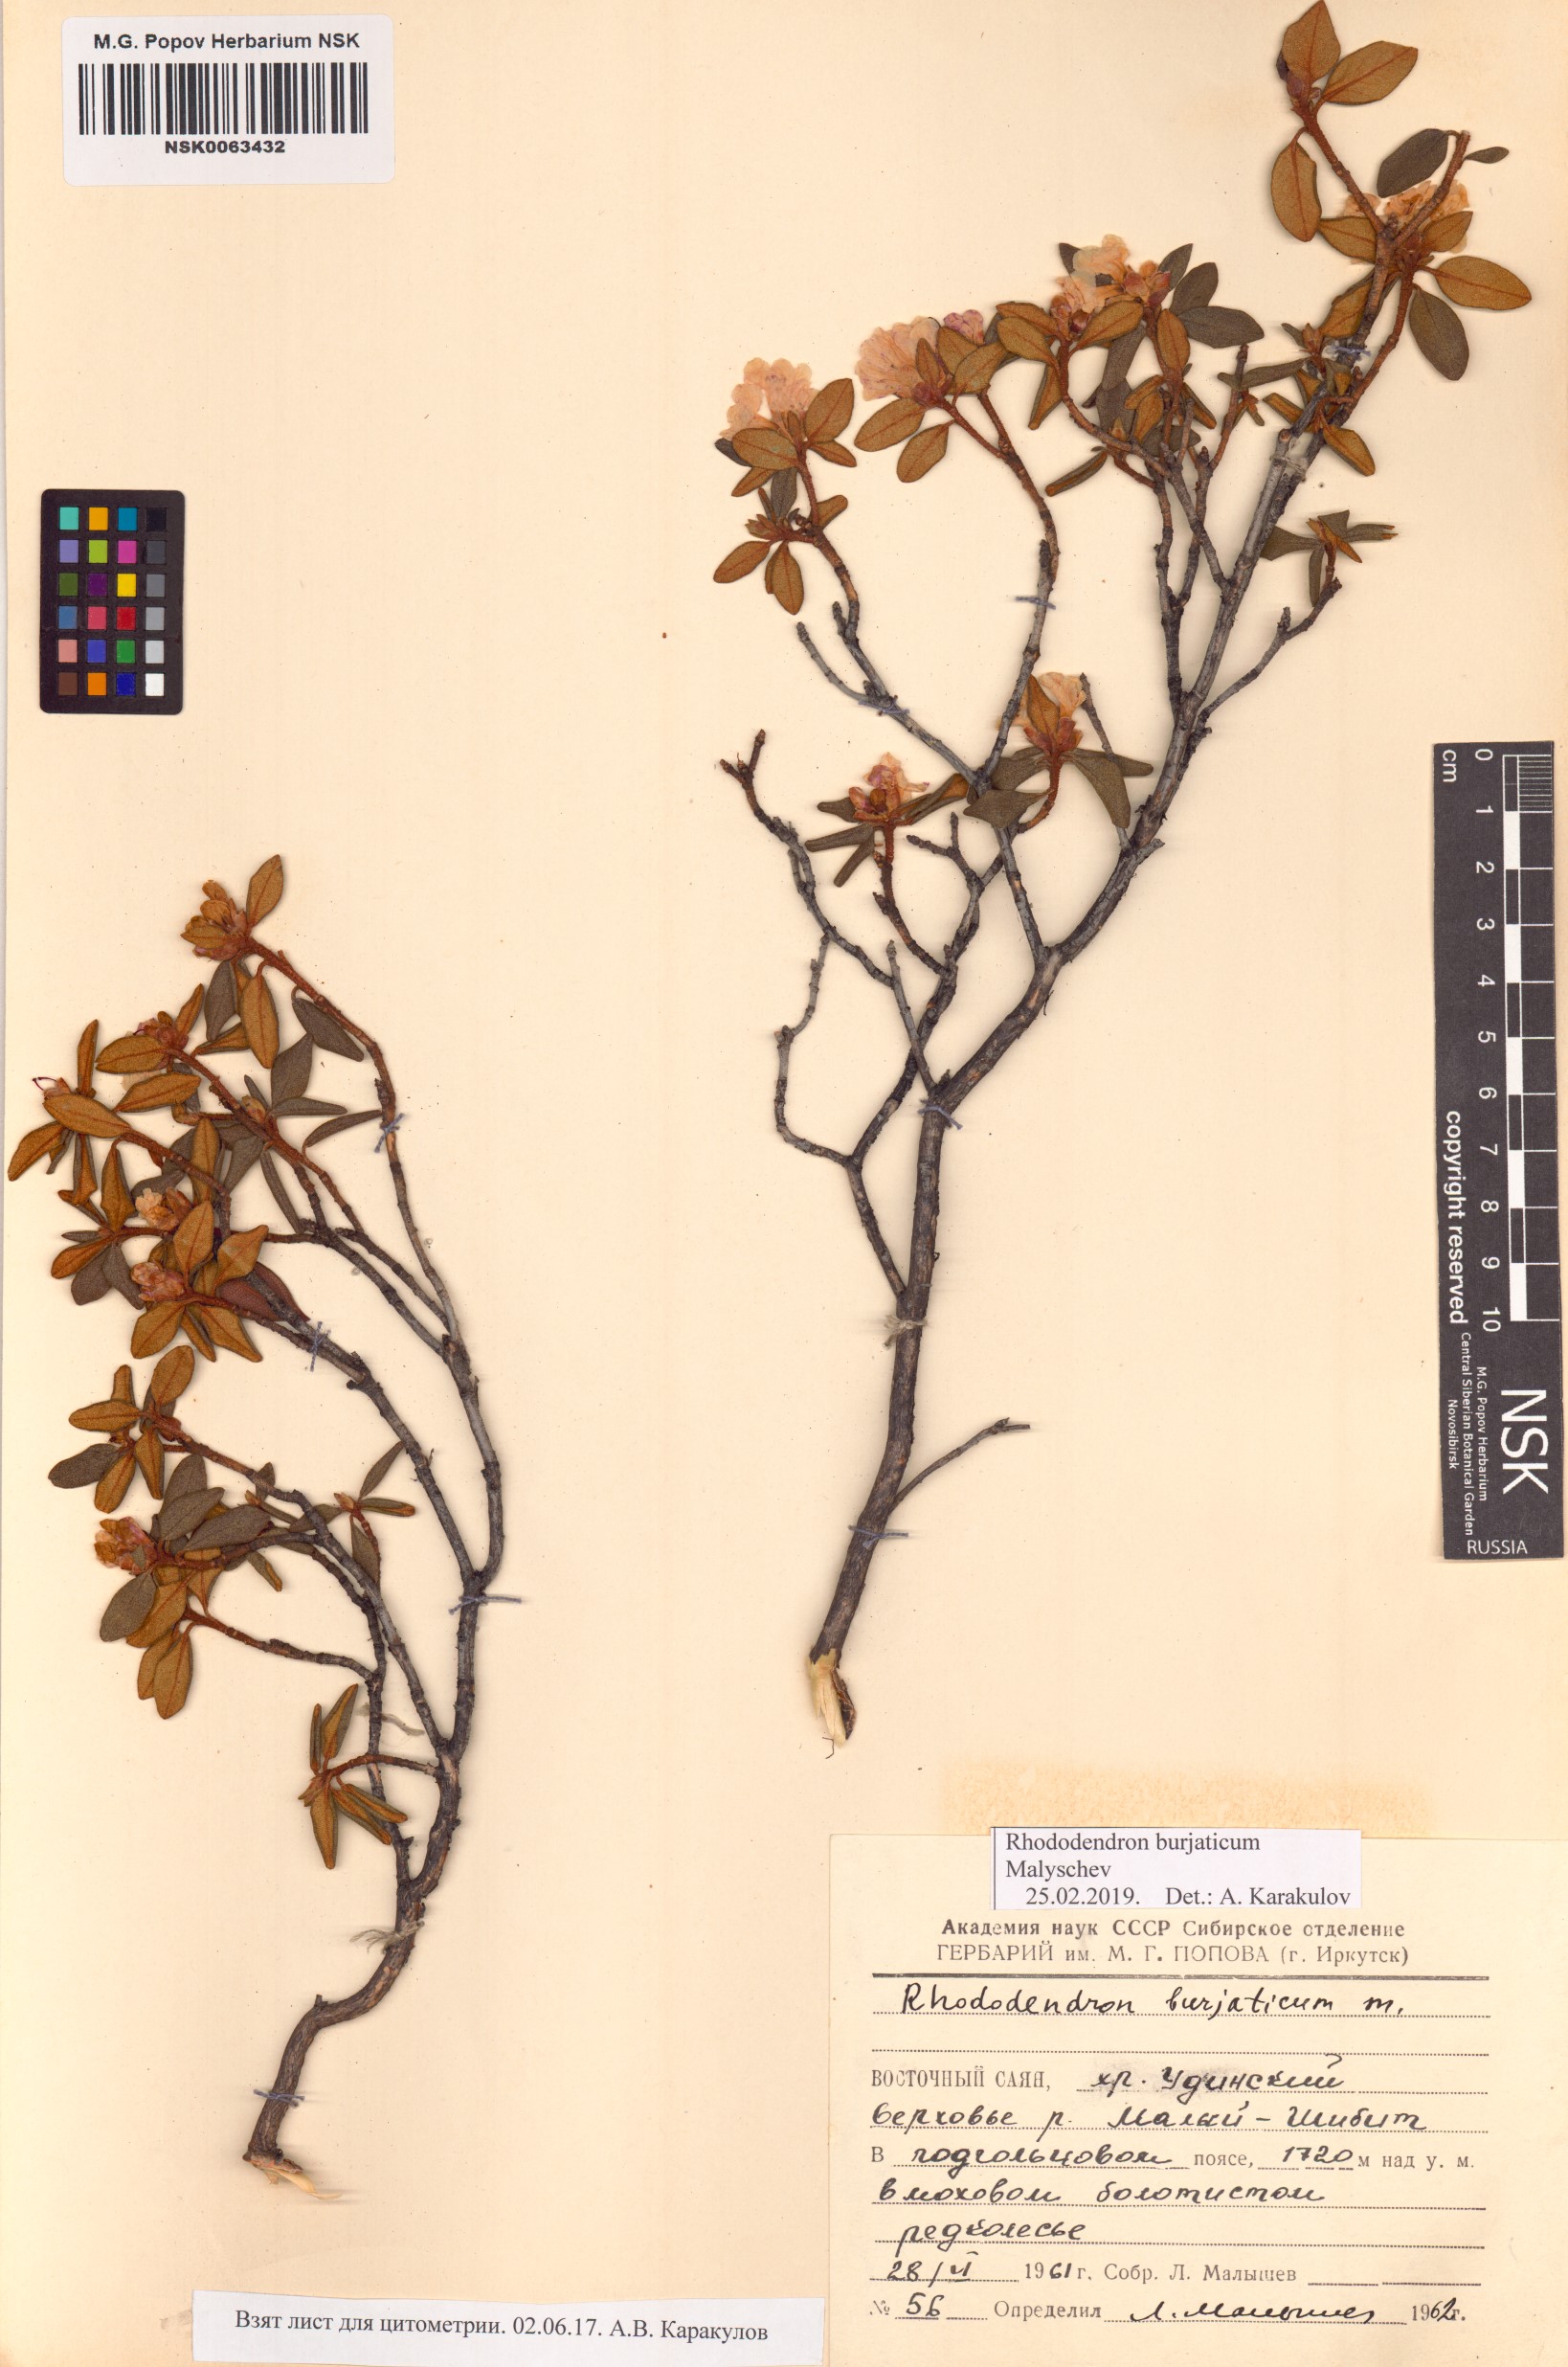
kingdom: Plantae
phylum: Tracheophyta
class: Magnoliopsida
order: Ericales
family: Ericaceae
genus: Rhododendron
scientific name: Rhododendron burjaticum
